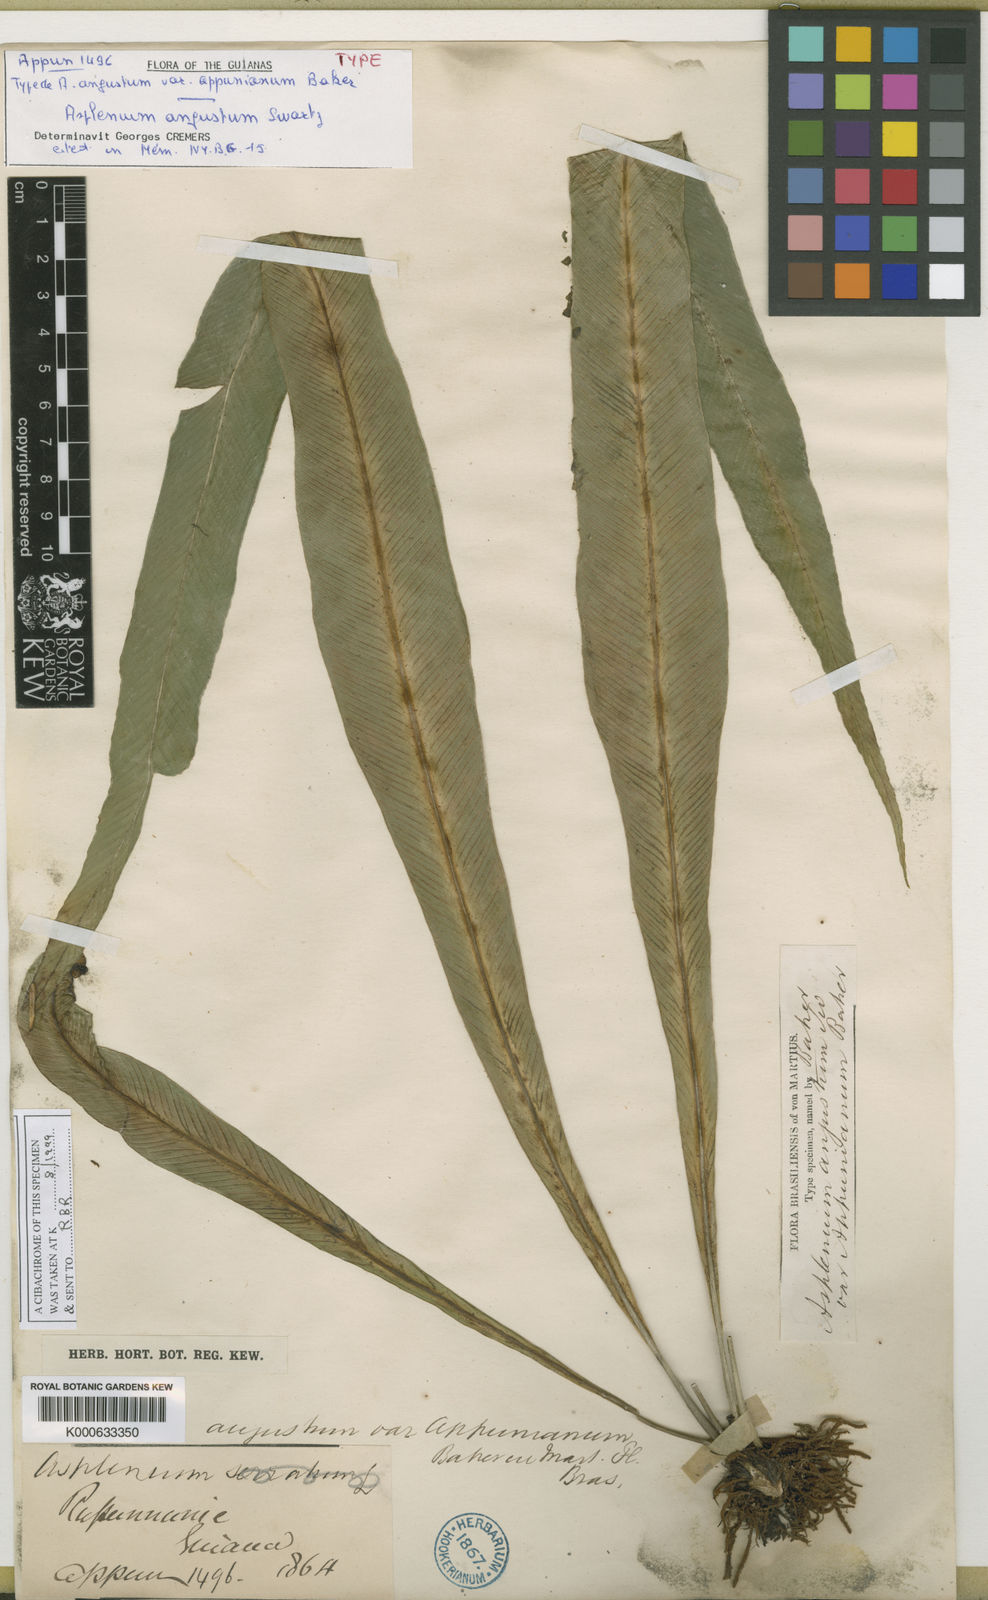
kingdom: Plantae
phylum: Tracheophyta
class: Polypodiopsida
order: Polypodiales
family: Aspleniaceae
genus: Asplenium
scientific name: Asplenium
